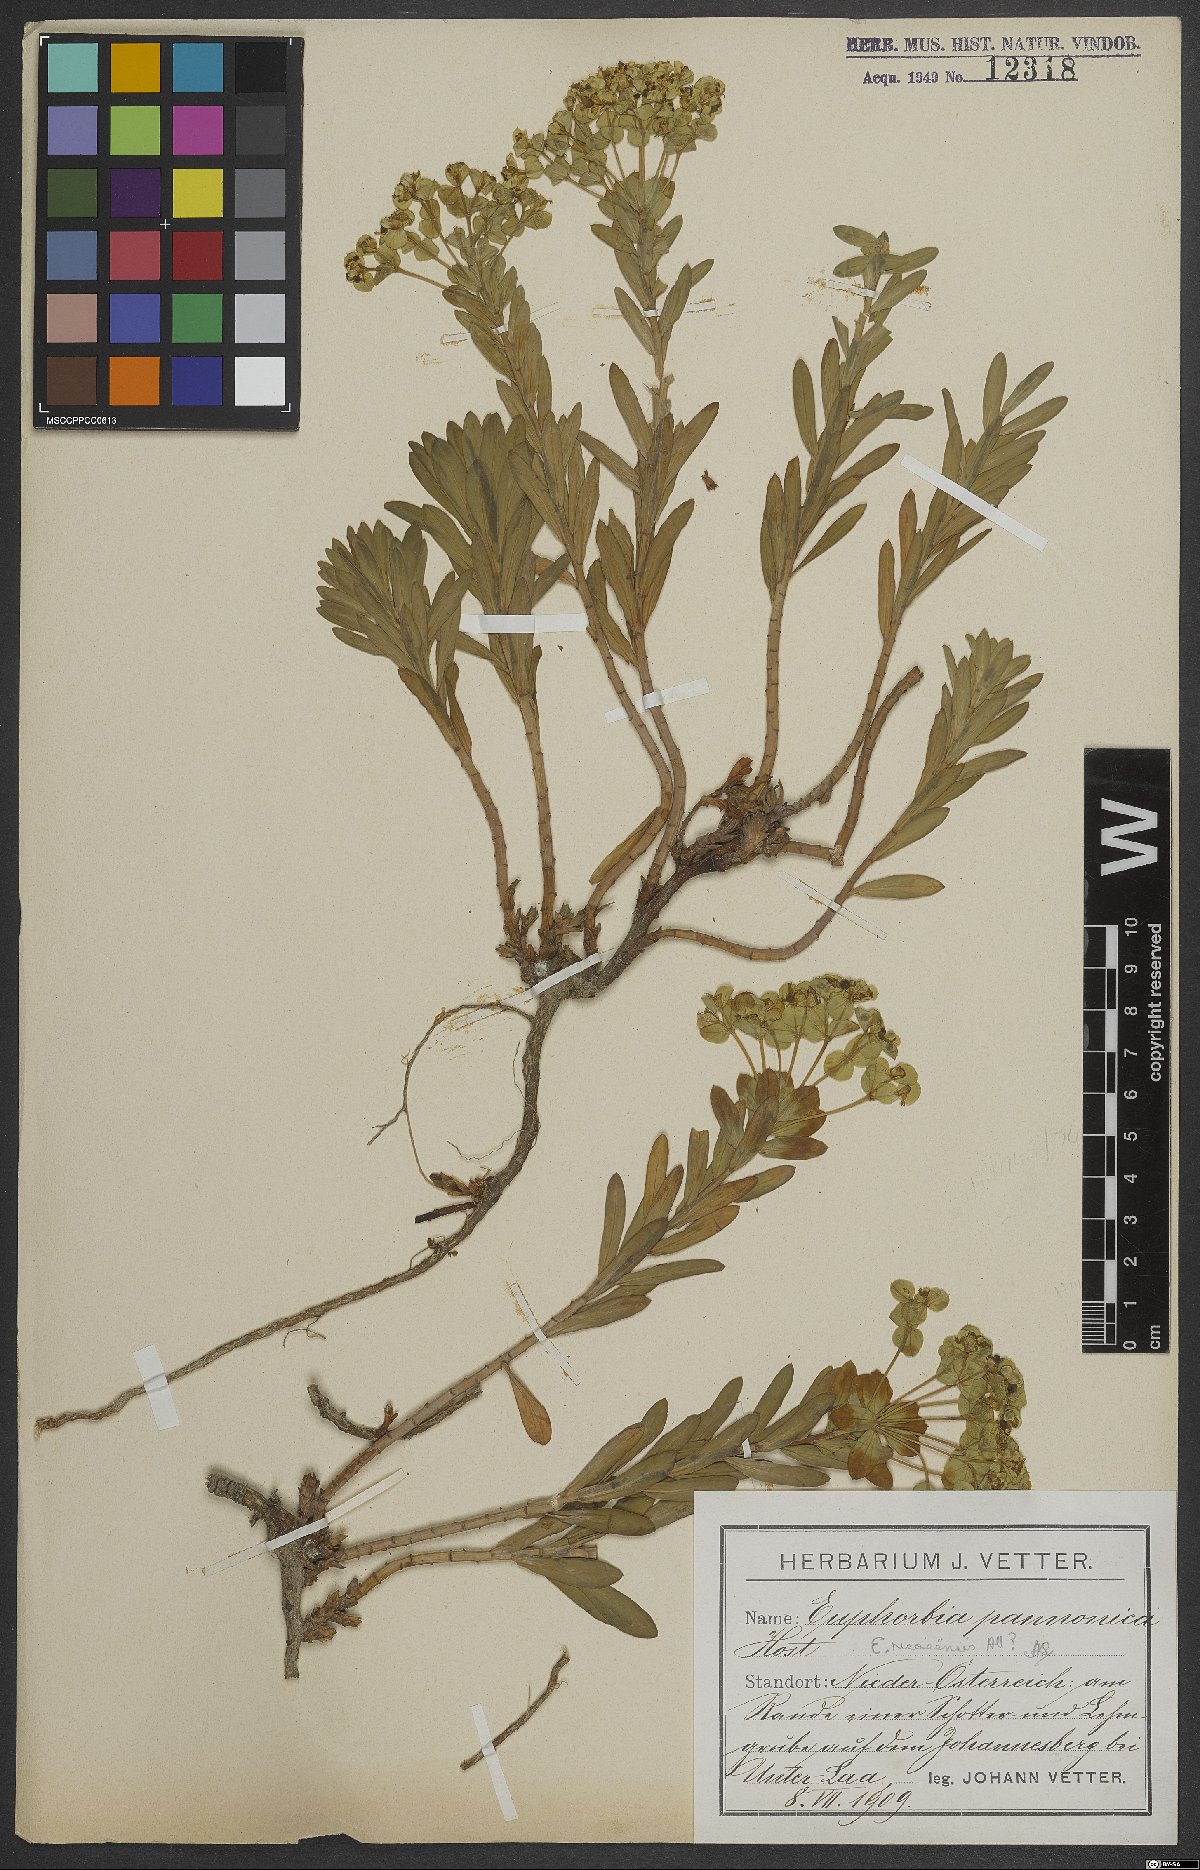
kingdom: Plantae
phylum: Tracheophyta
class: Magnoliopsida
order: Malpighiales
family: Euphorbiaceae
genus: Euphorbia
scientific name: Euphorbia pannonica
